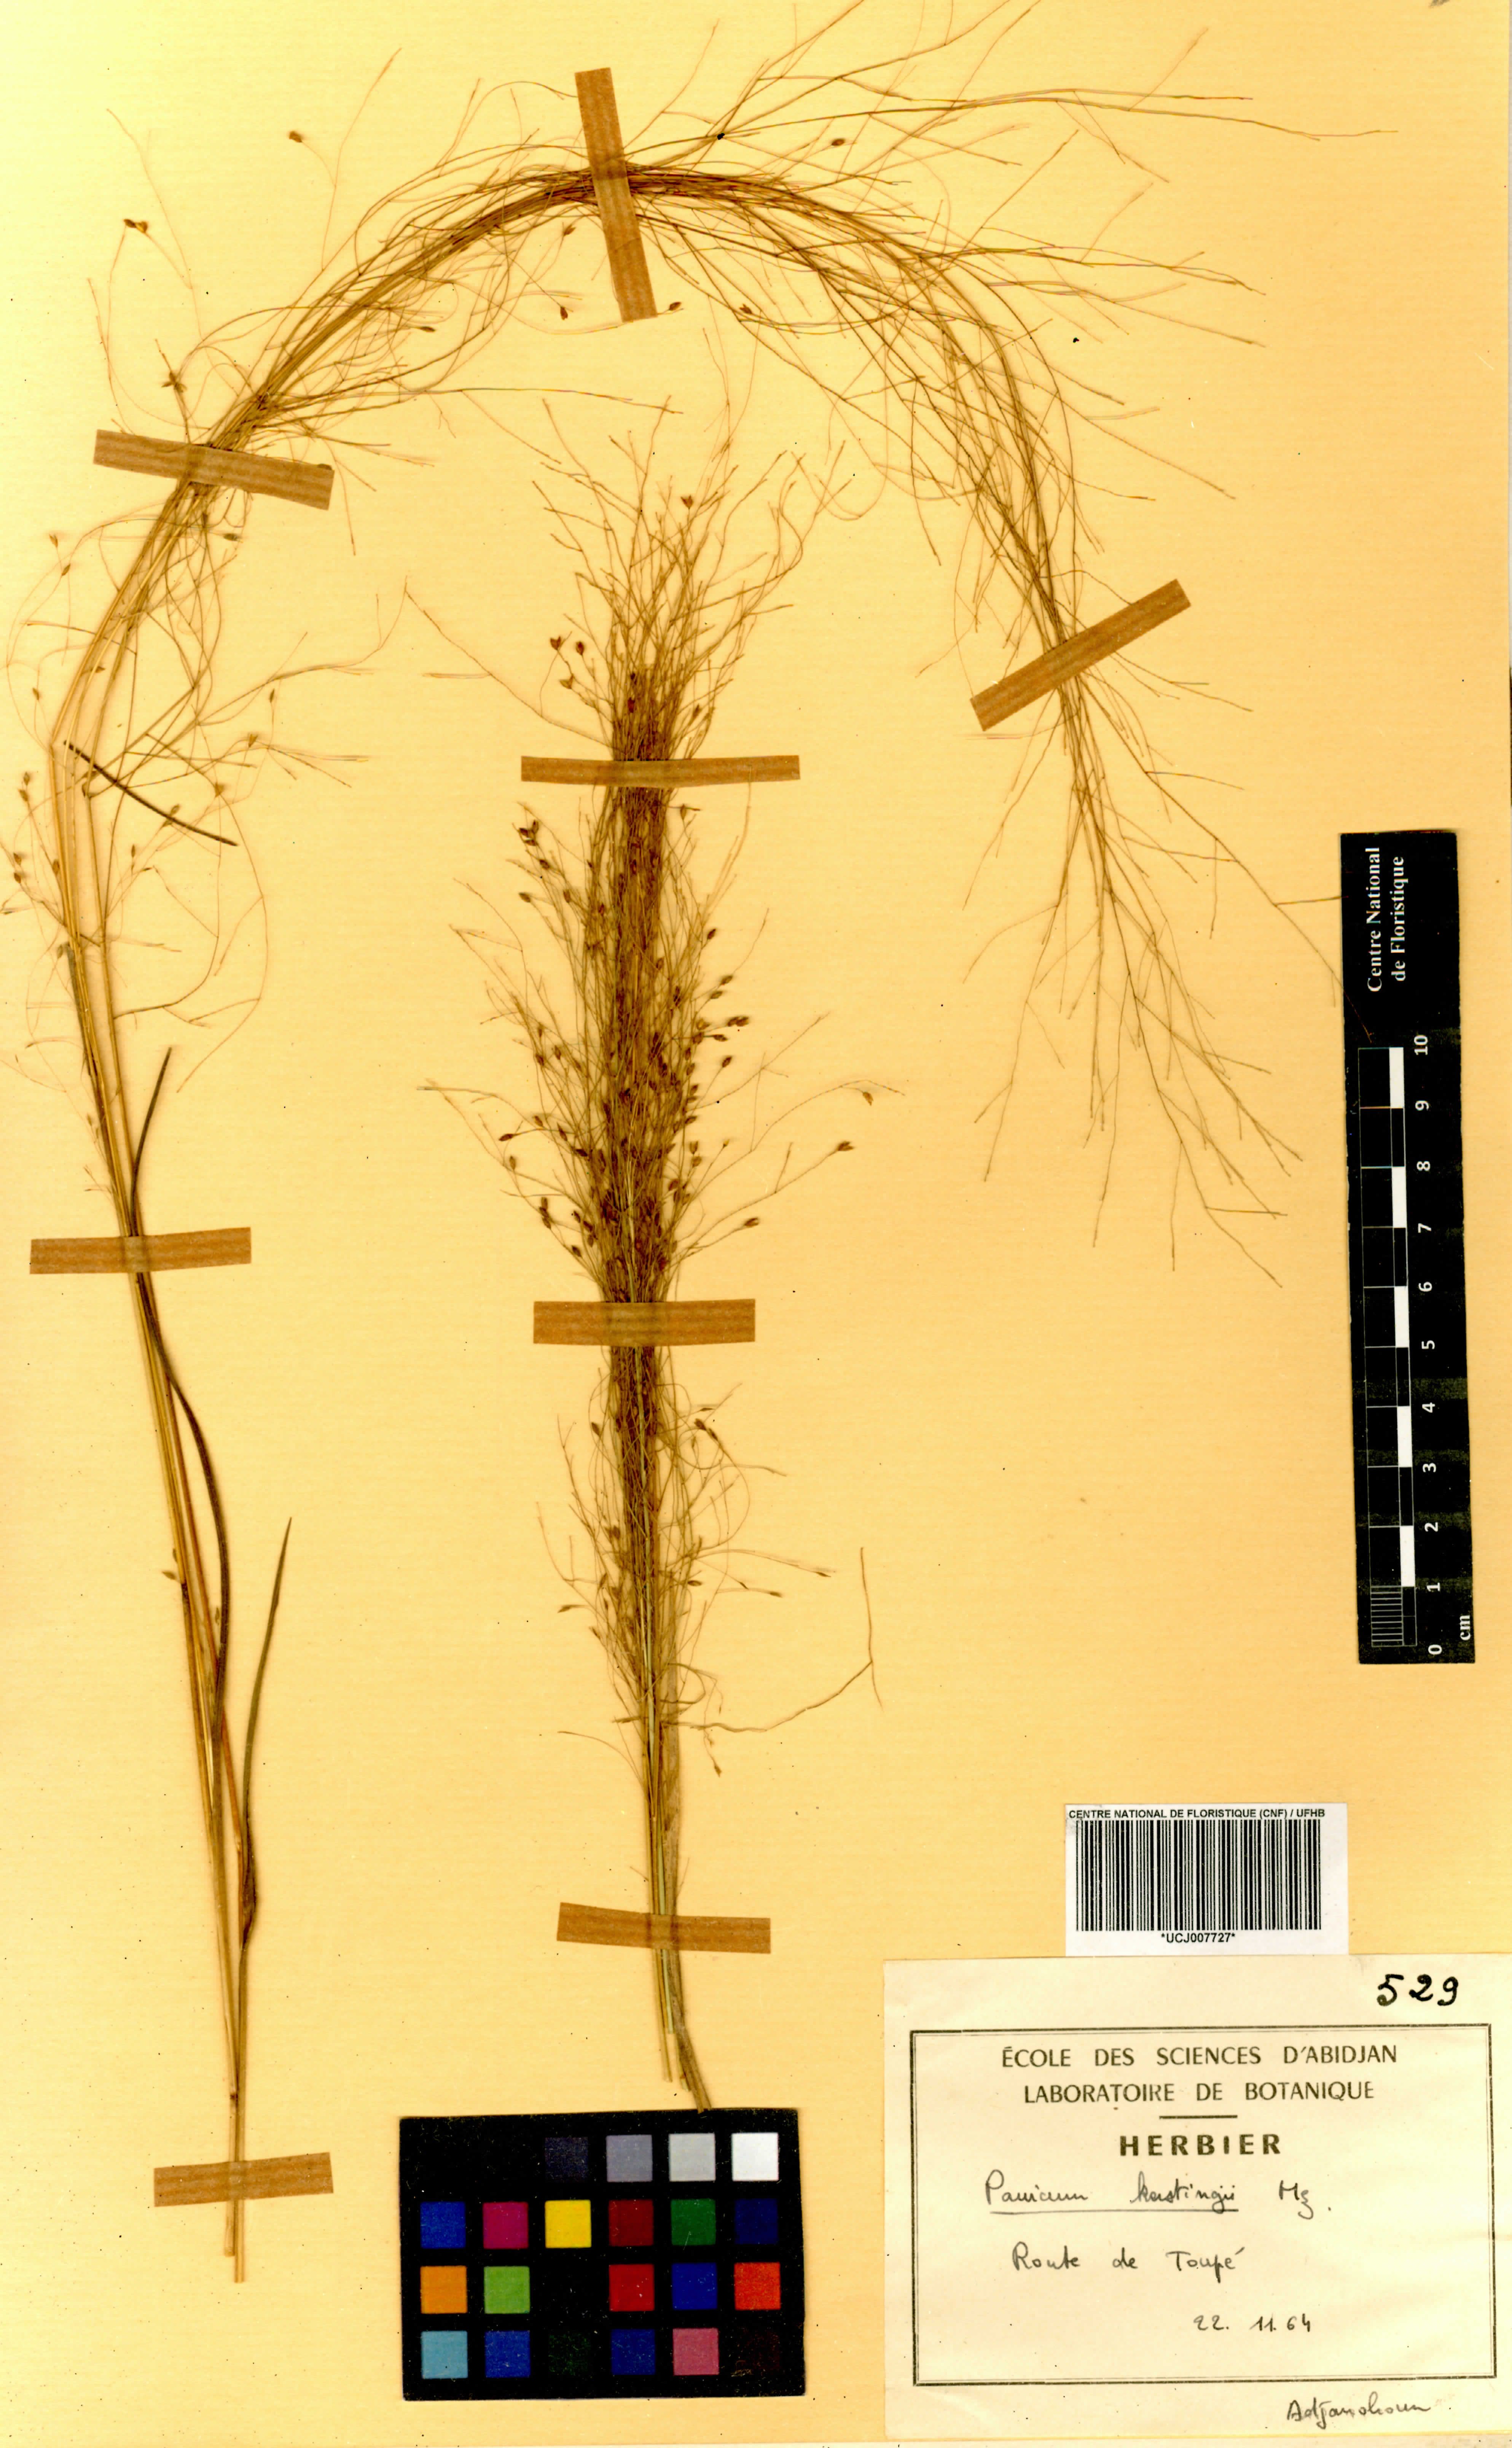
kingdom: Plantae
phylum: Tracheophyta
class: Liliopsida
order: Poales
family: Poaceae
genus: Panicum
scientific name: Panicum pansum
